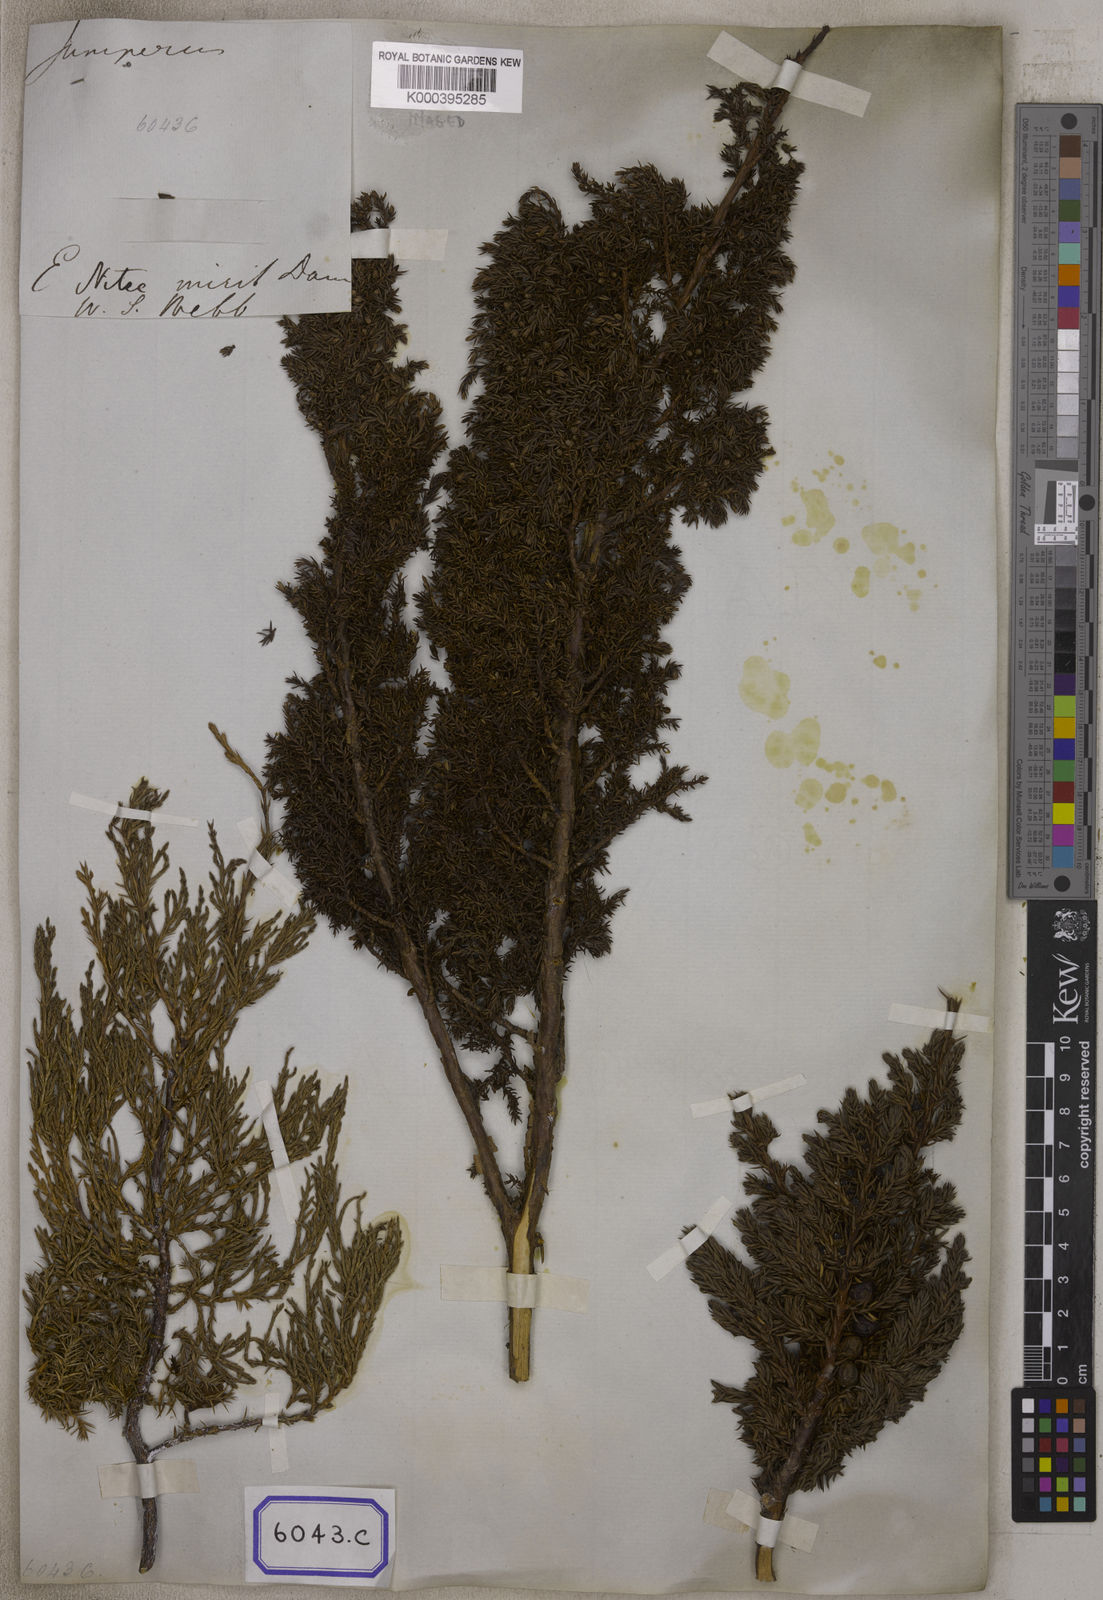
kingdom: Plantae
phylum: Tracheophyta
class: Pinopsida
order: Pinales
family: Cupressaceae
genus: Juniperus
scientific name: Juniperus
